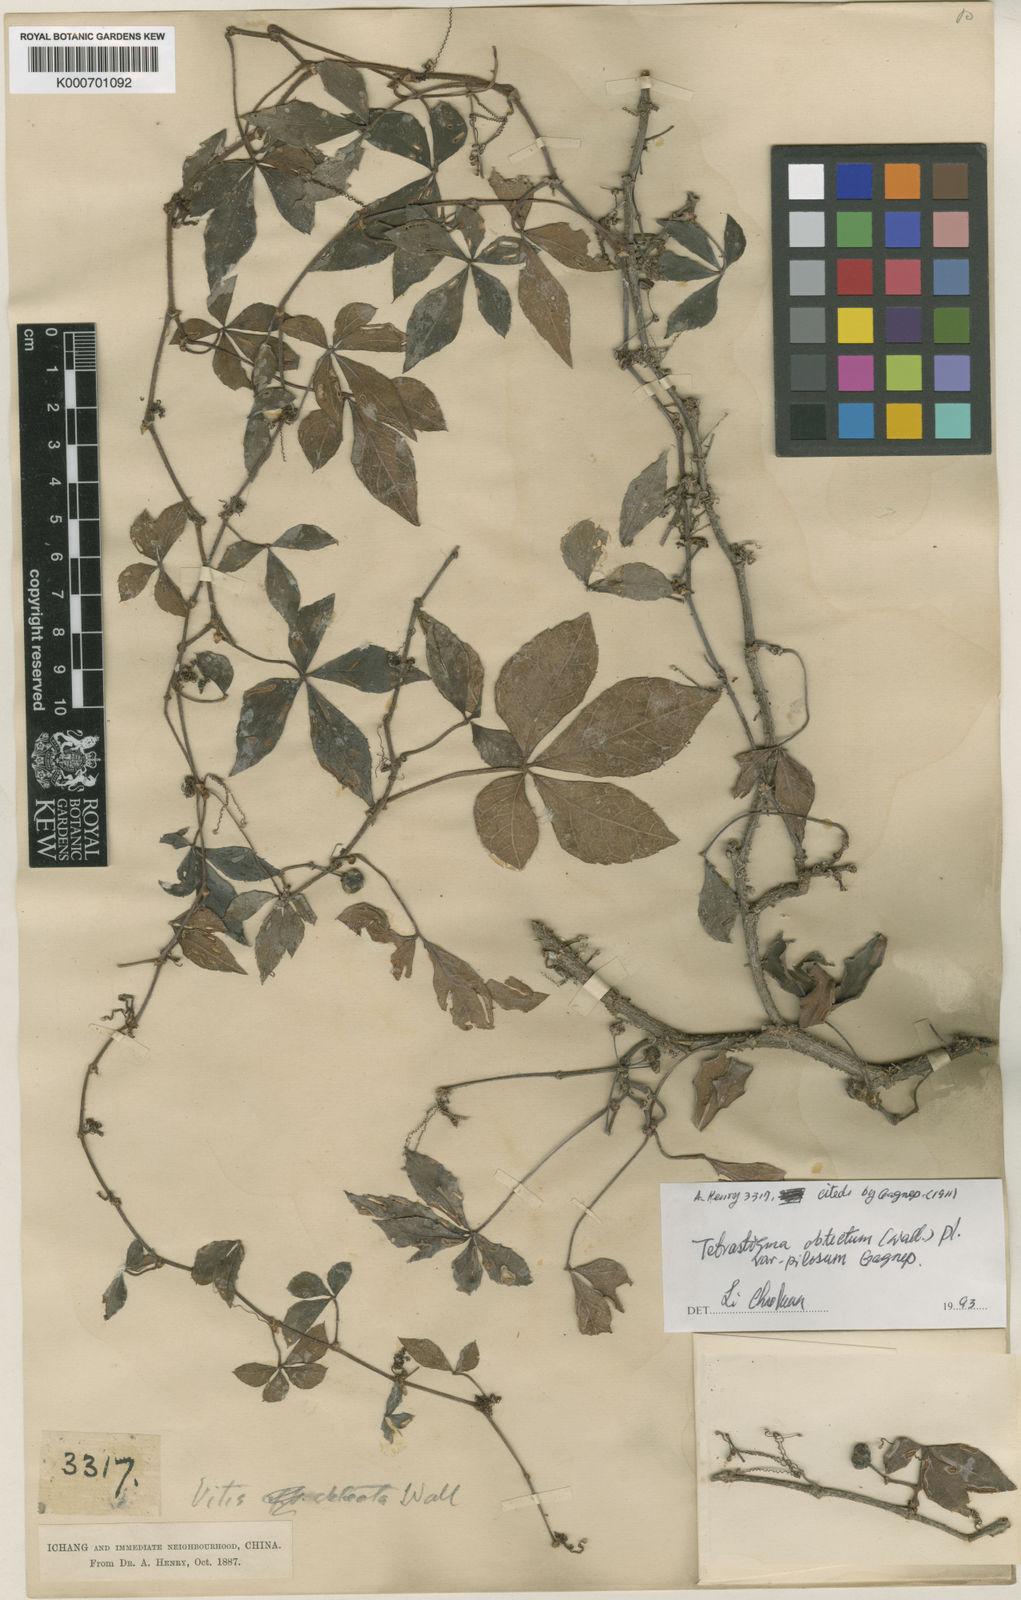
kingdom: Plantae
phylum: Tracheophyta
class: Magnoliopsida
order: Vitales
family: Vitaceae
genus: Tetrastigma
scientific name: Tetrastigma
